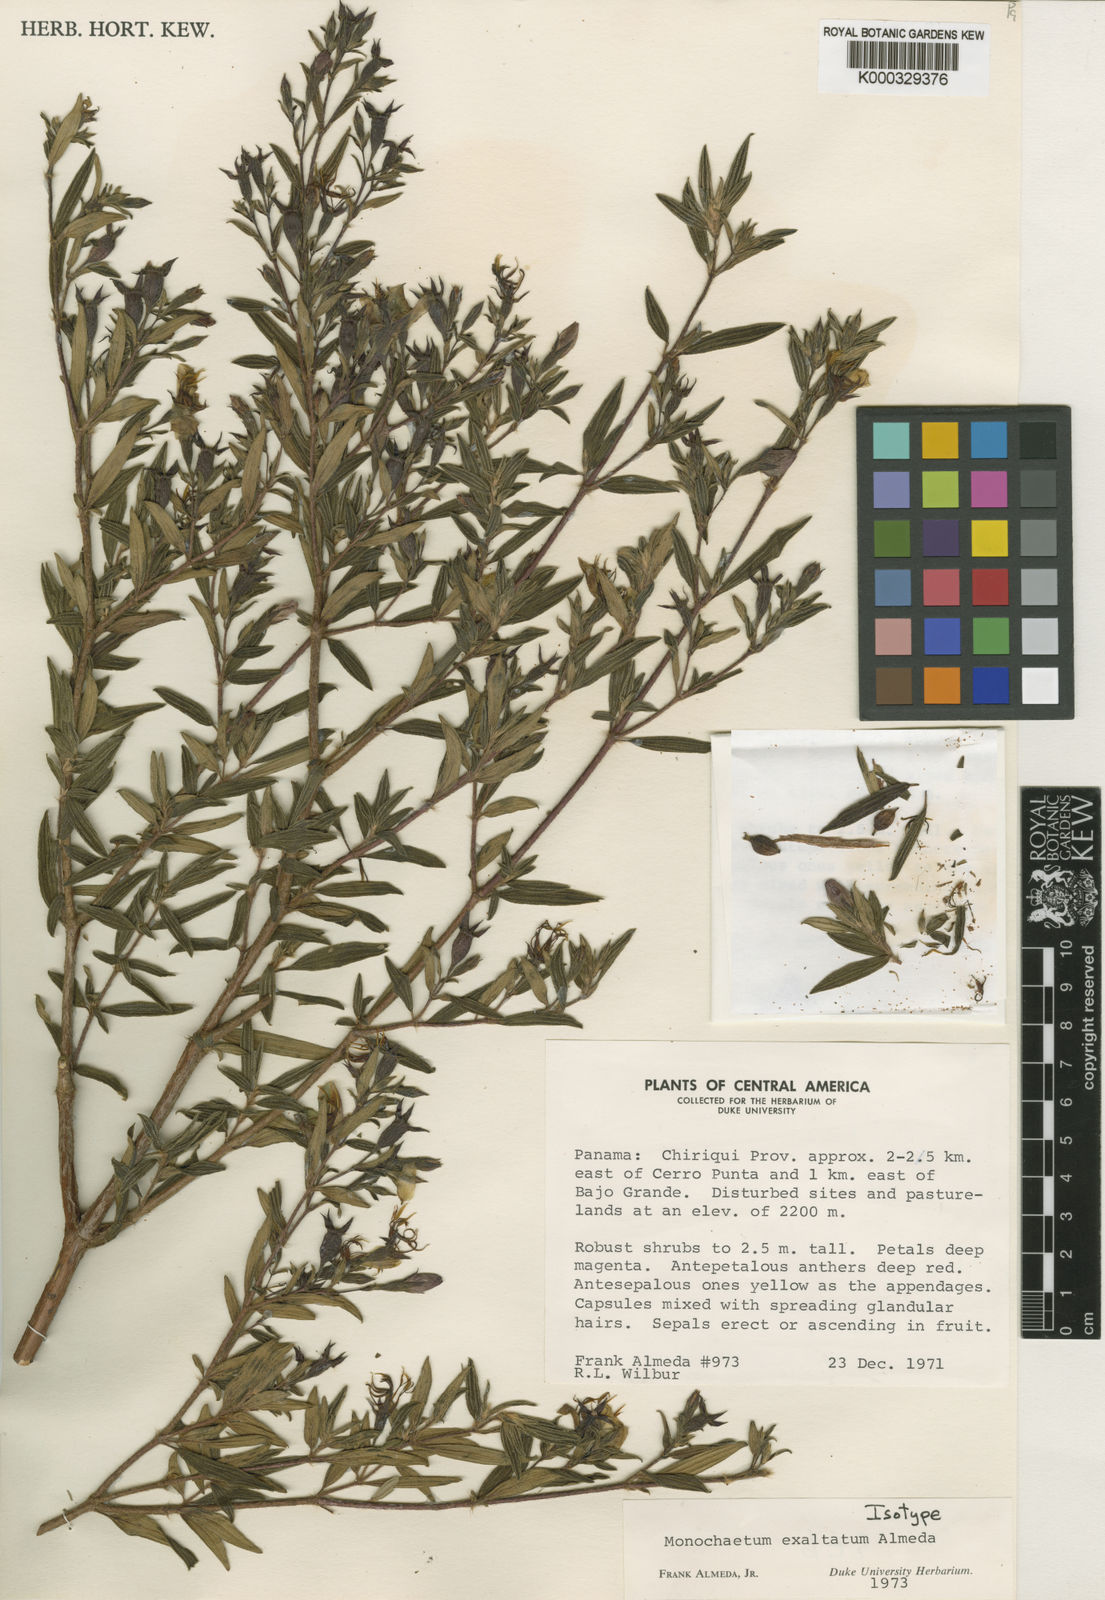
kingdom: Plantae
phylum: Tracheophyta
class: Magnoliopsida
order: Myrtales
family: Melastomataceae
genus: Monochaetum
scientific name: Monochaetum exaltatum
